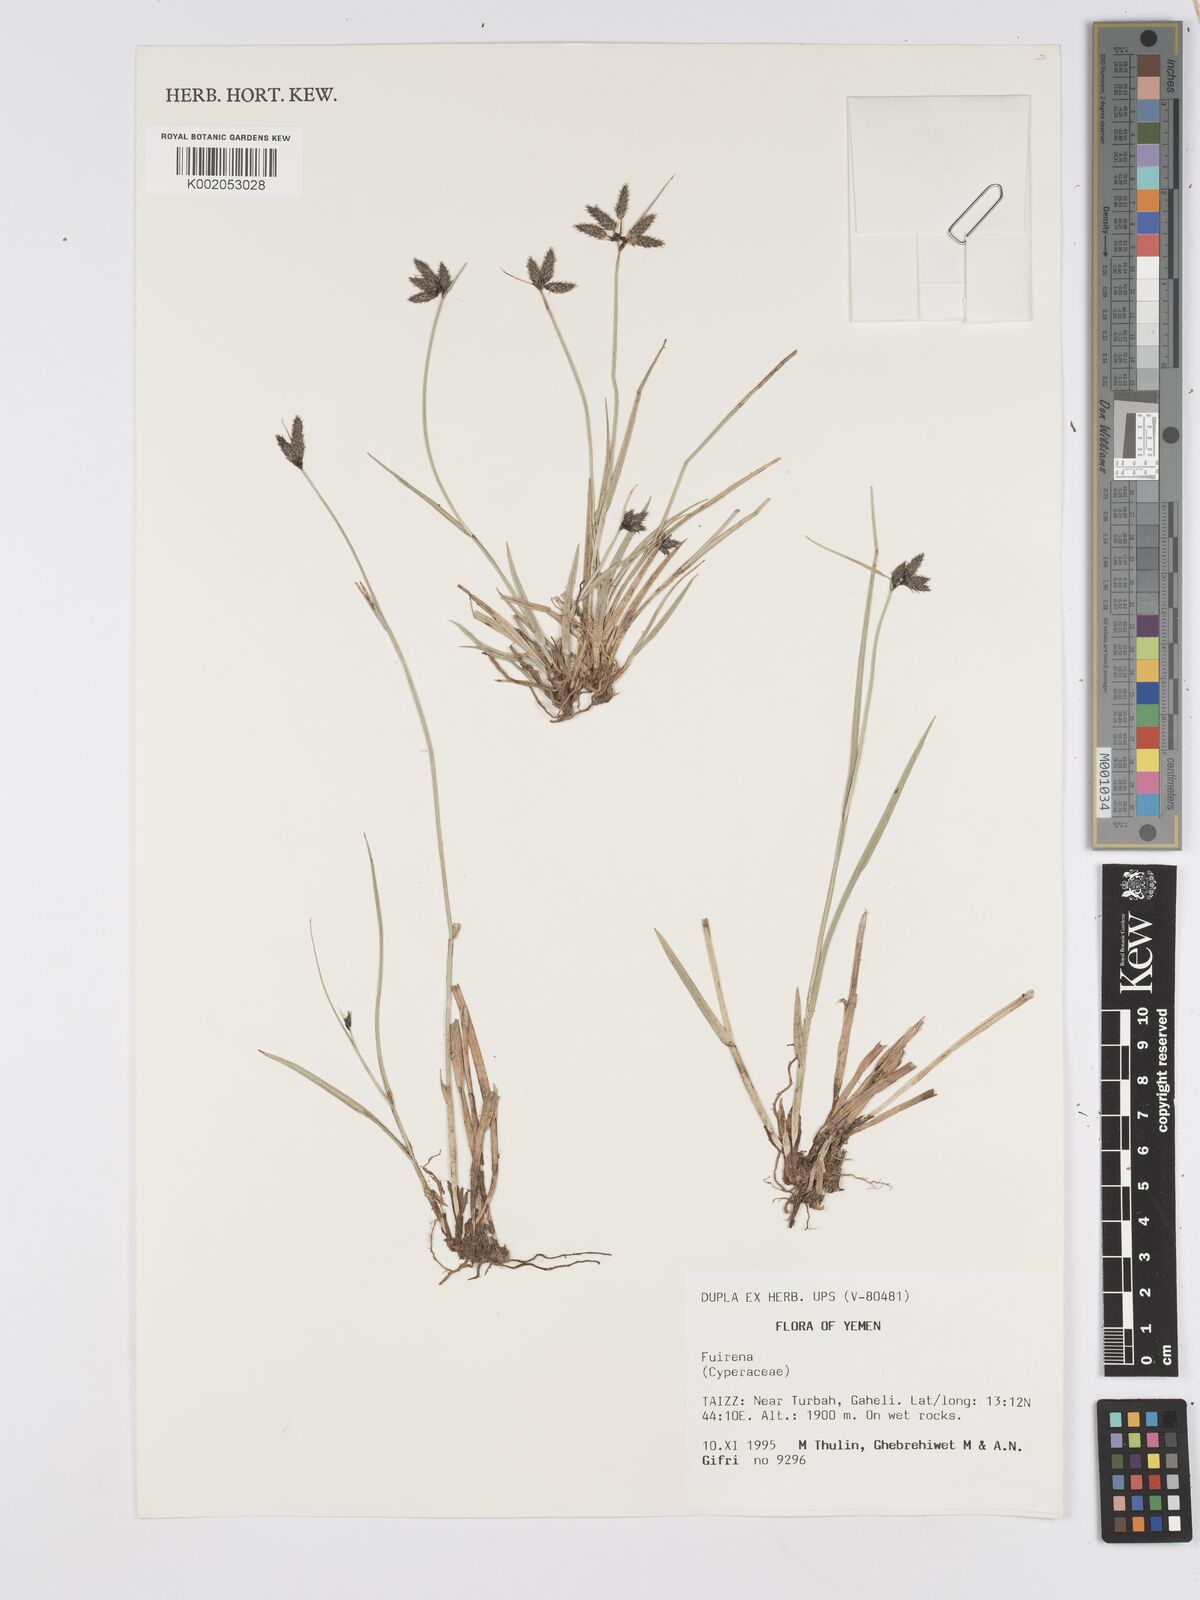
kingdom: Plantae
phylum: Tracheophyta
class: Liliopsida
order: Poales
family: Cyperaceae
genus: Fuirena
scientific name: Fuirena pubescens
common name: Hairy sedge
